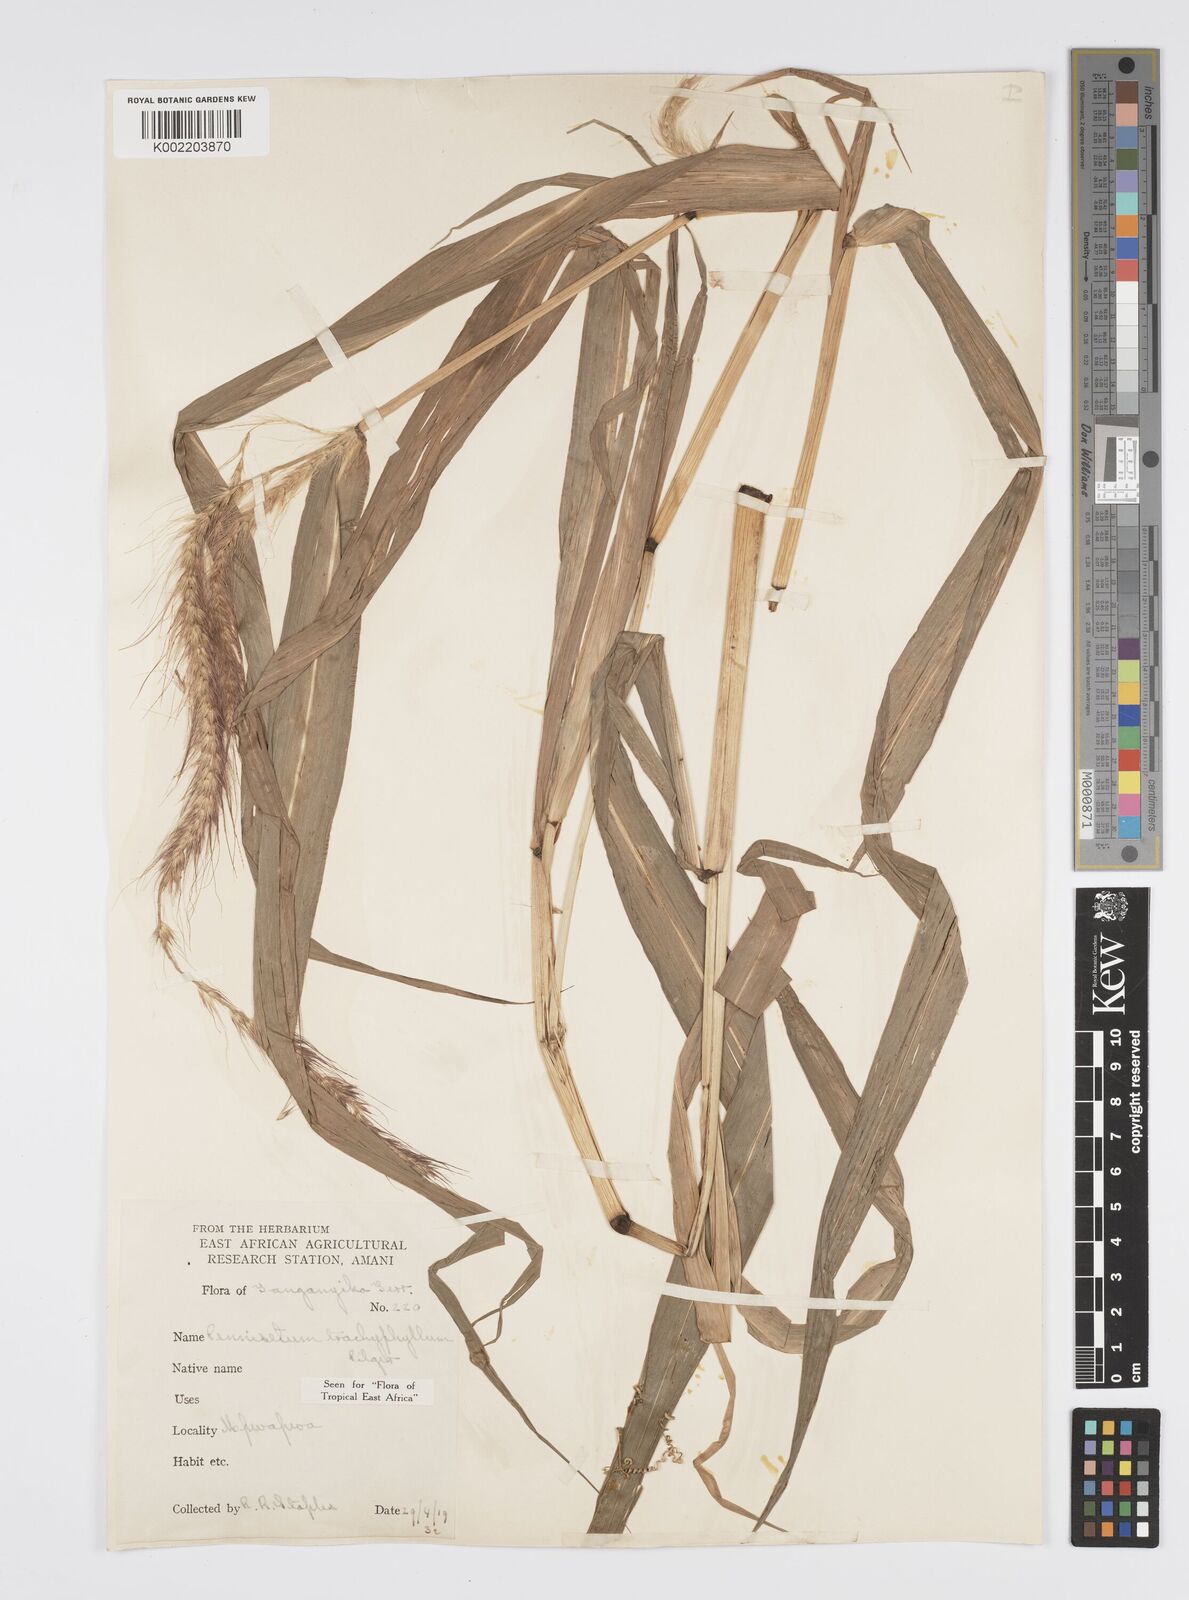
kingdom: Plantae
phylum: Tracheophyta
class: Liliopsida
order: Poales
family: Poaceae
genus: Cenchrus
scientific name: Cenchrus trachyphyllus
